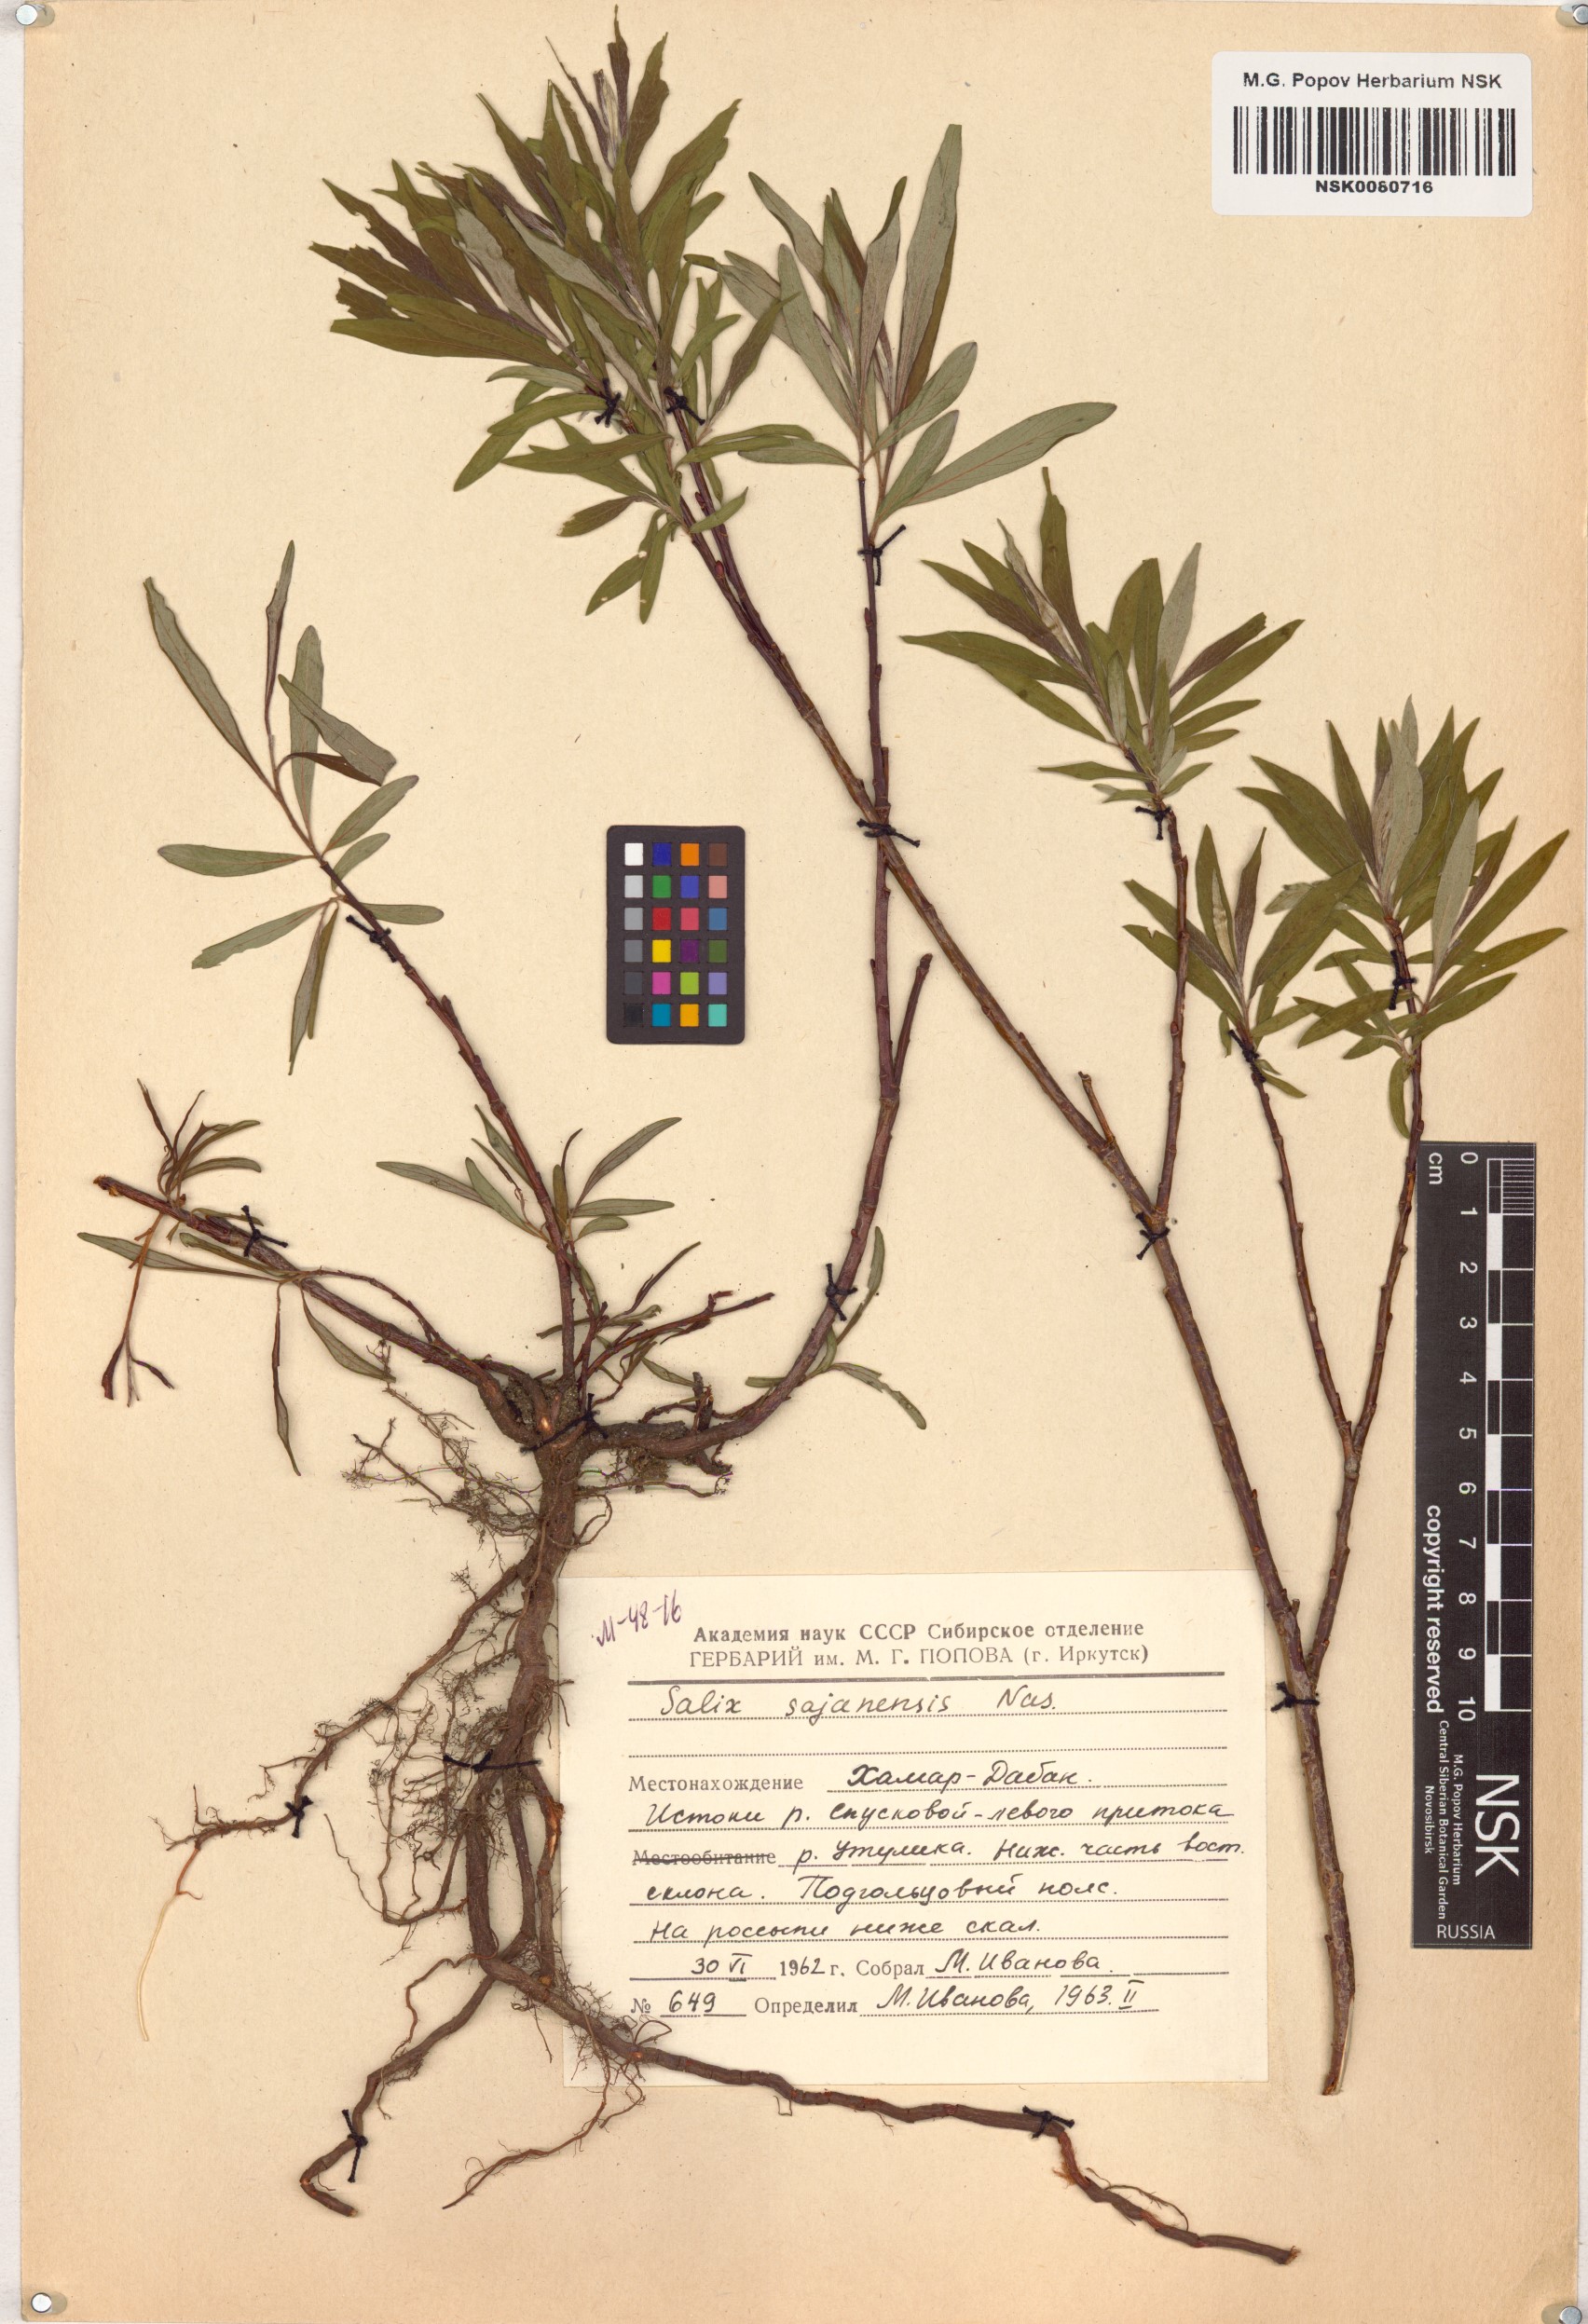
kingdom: Plantae
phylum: Tracheophyta
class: Magnoliopsida
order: Malpighiales
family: Salicaceae
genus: Salix
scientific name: Salix sajanensis
